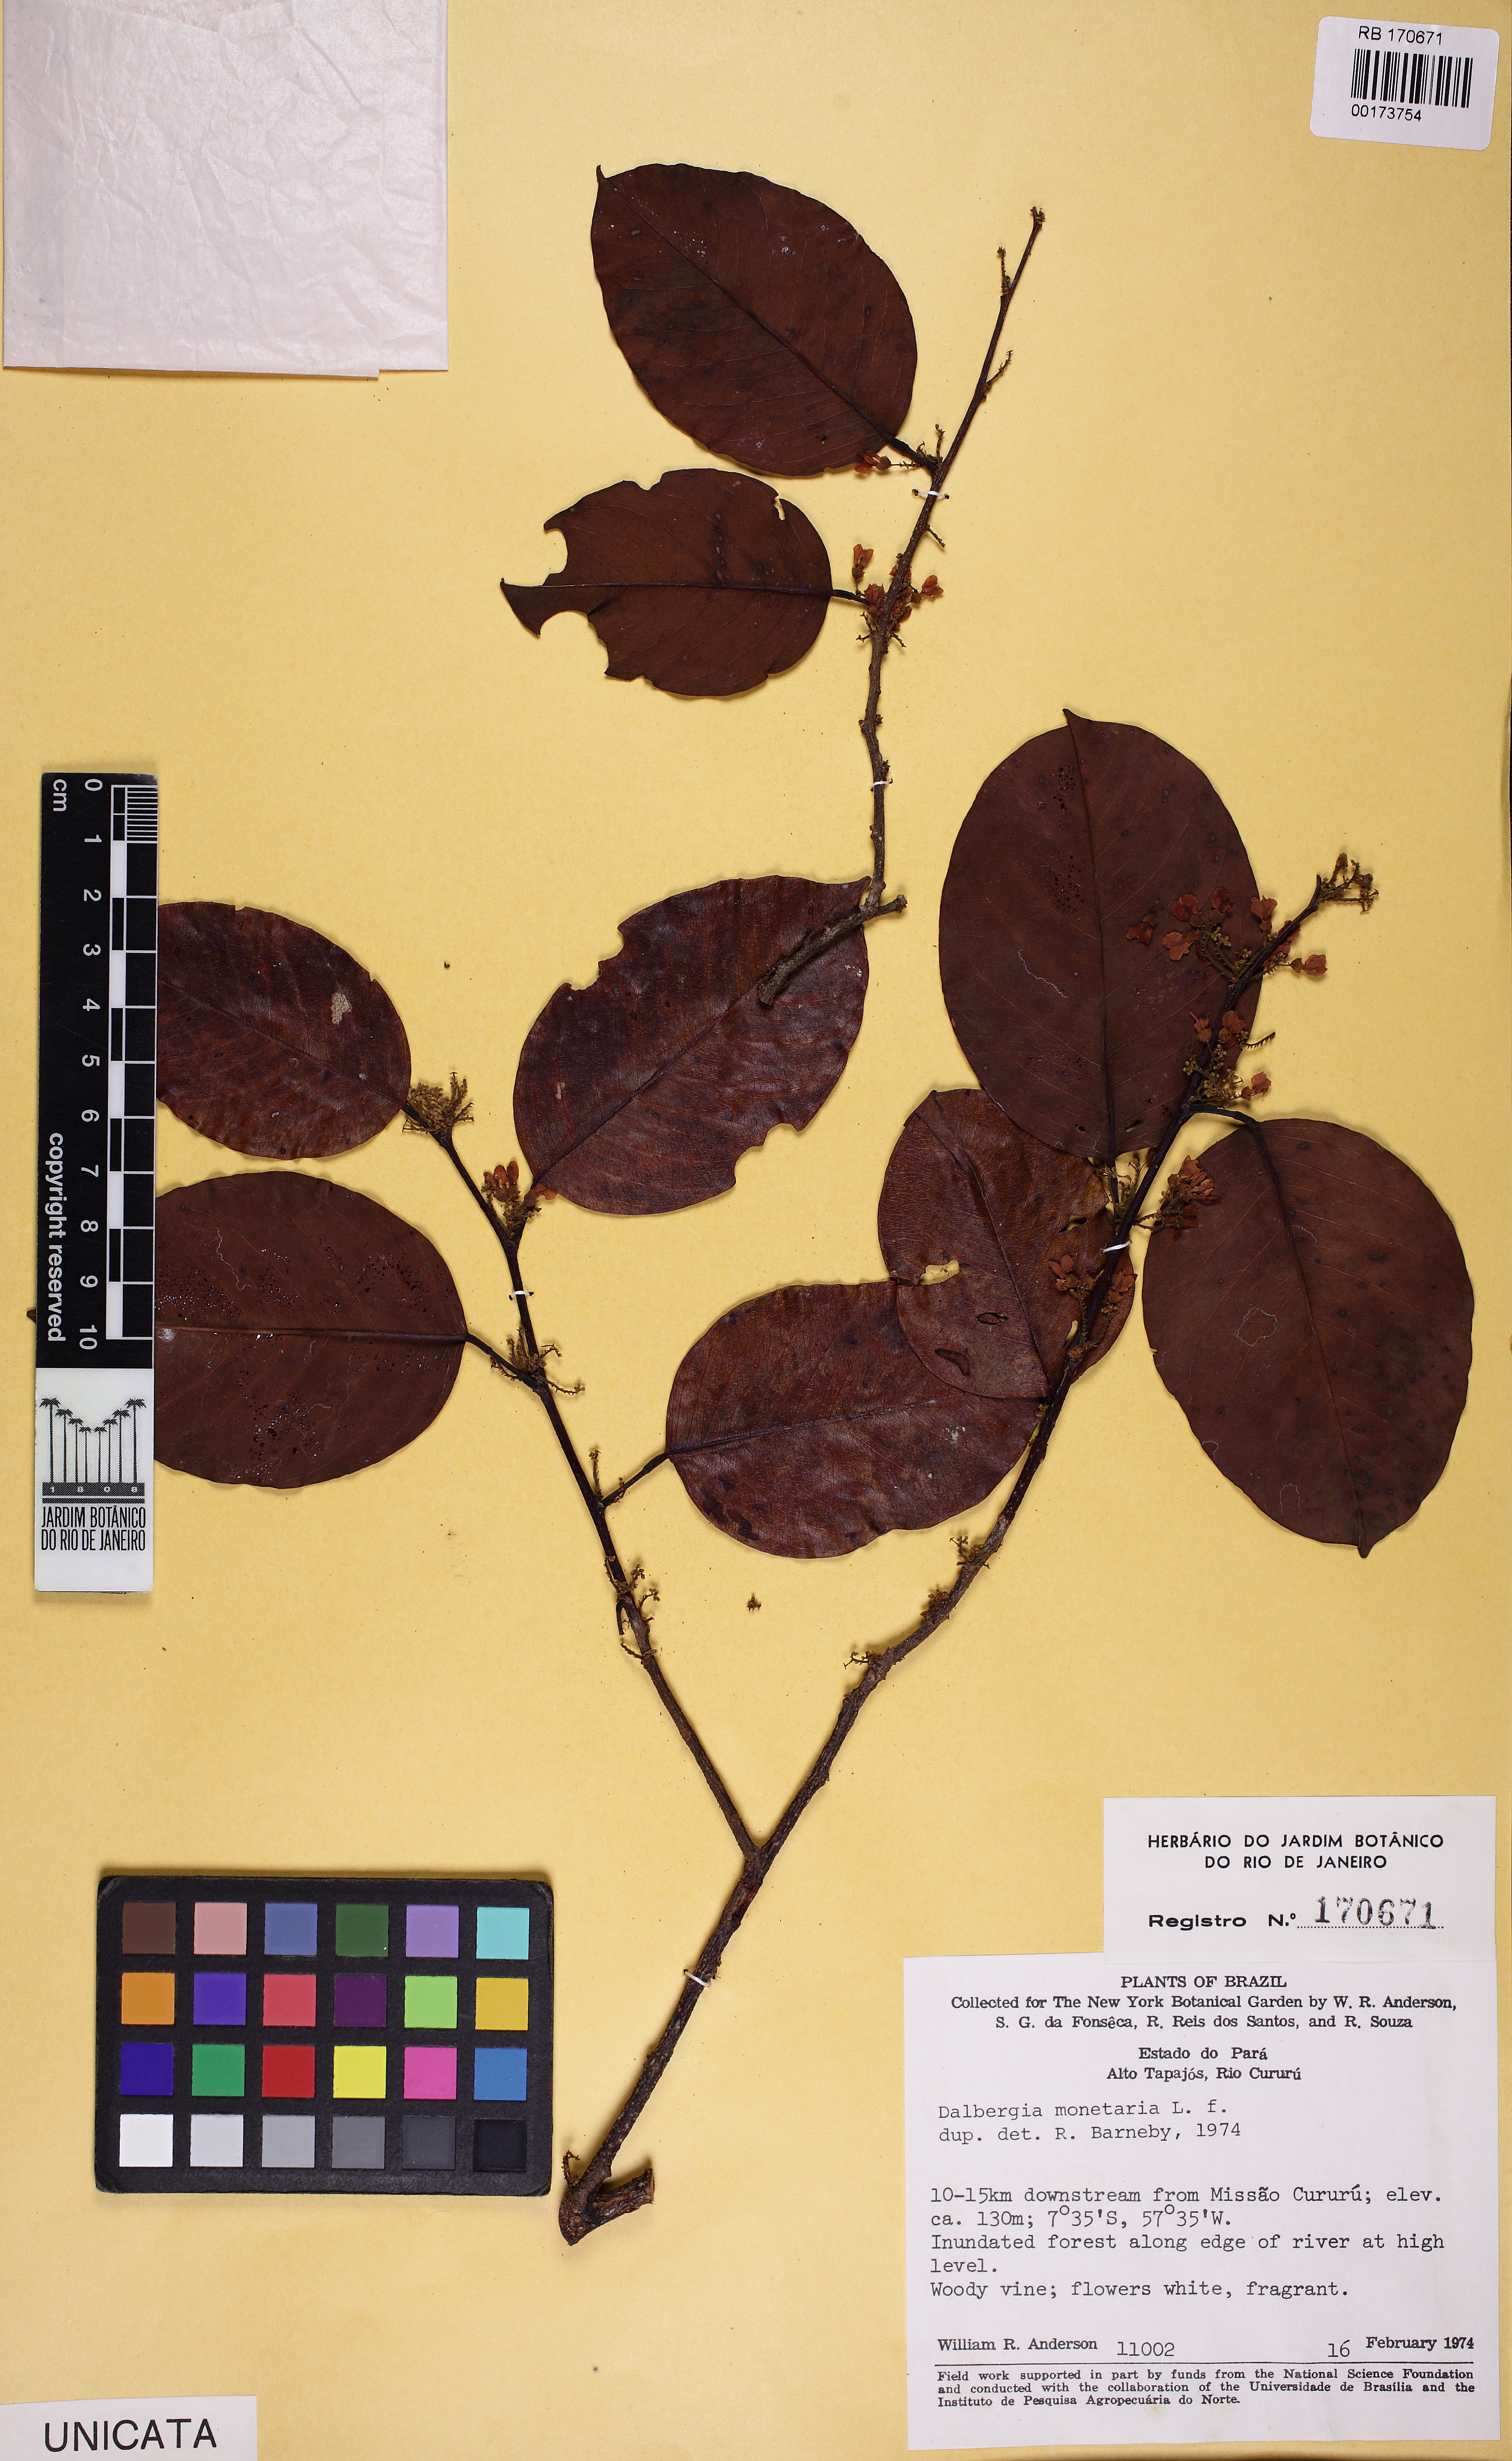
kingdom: Plantae
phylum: Tracheophyta
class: Magnoliopsida
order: Fabales
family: Fabaceae
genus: Dalbergia
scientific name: Dalbergia ovalis
